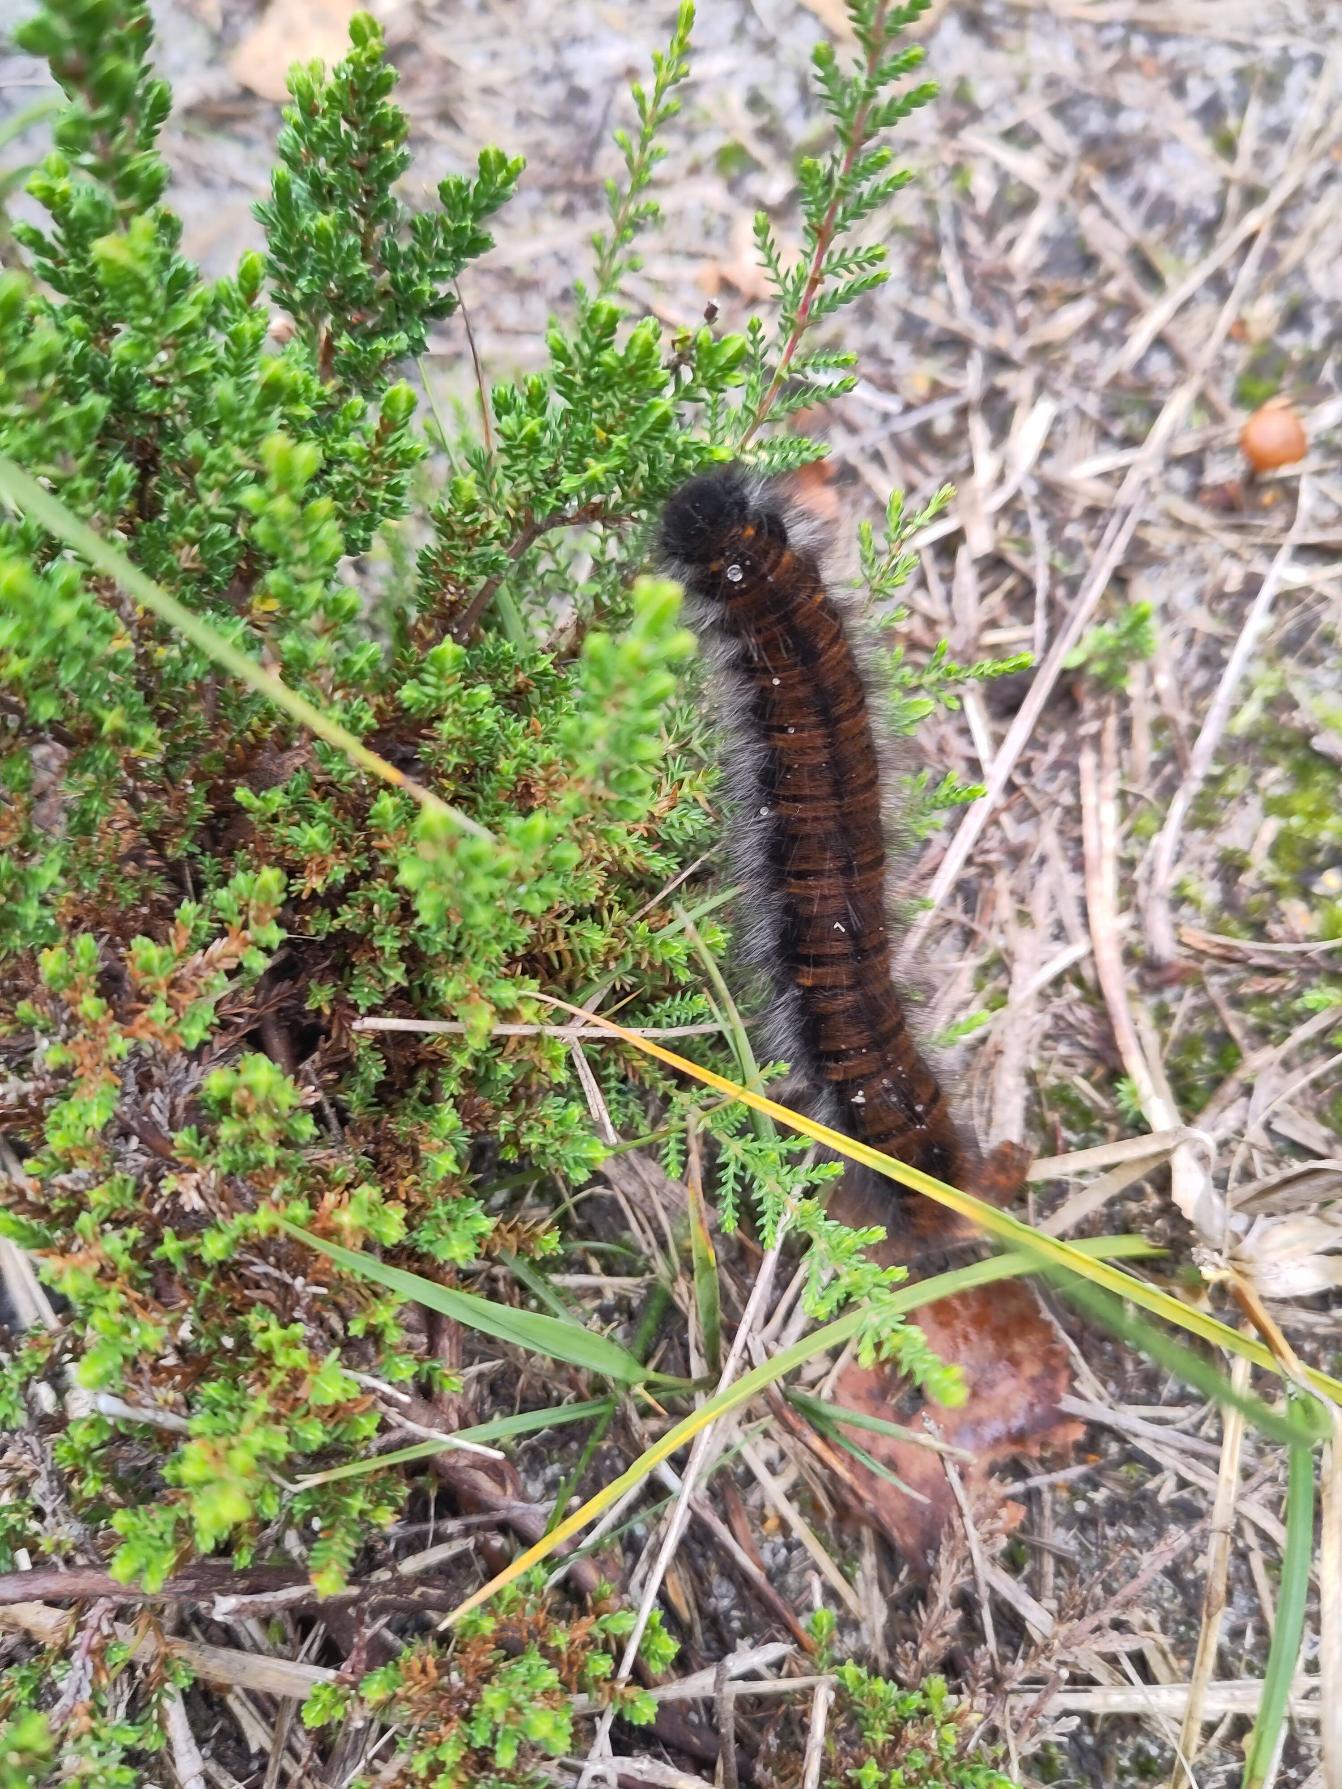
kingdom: Animalia
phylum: Arthropoda
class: Insecta
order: Lepidoptera
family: Lasiocampidae
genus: Macrothylacia
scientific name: Macrothylacia rubi
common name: Brombærspinder
